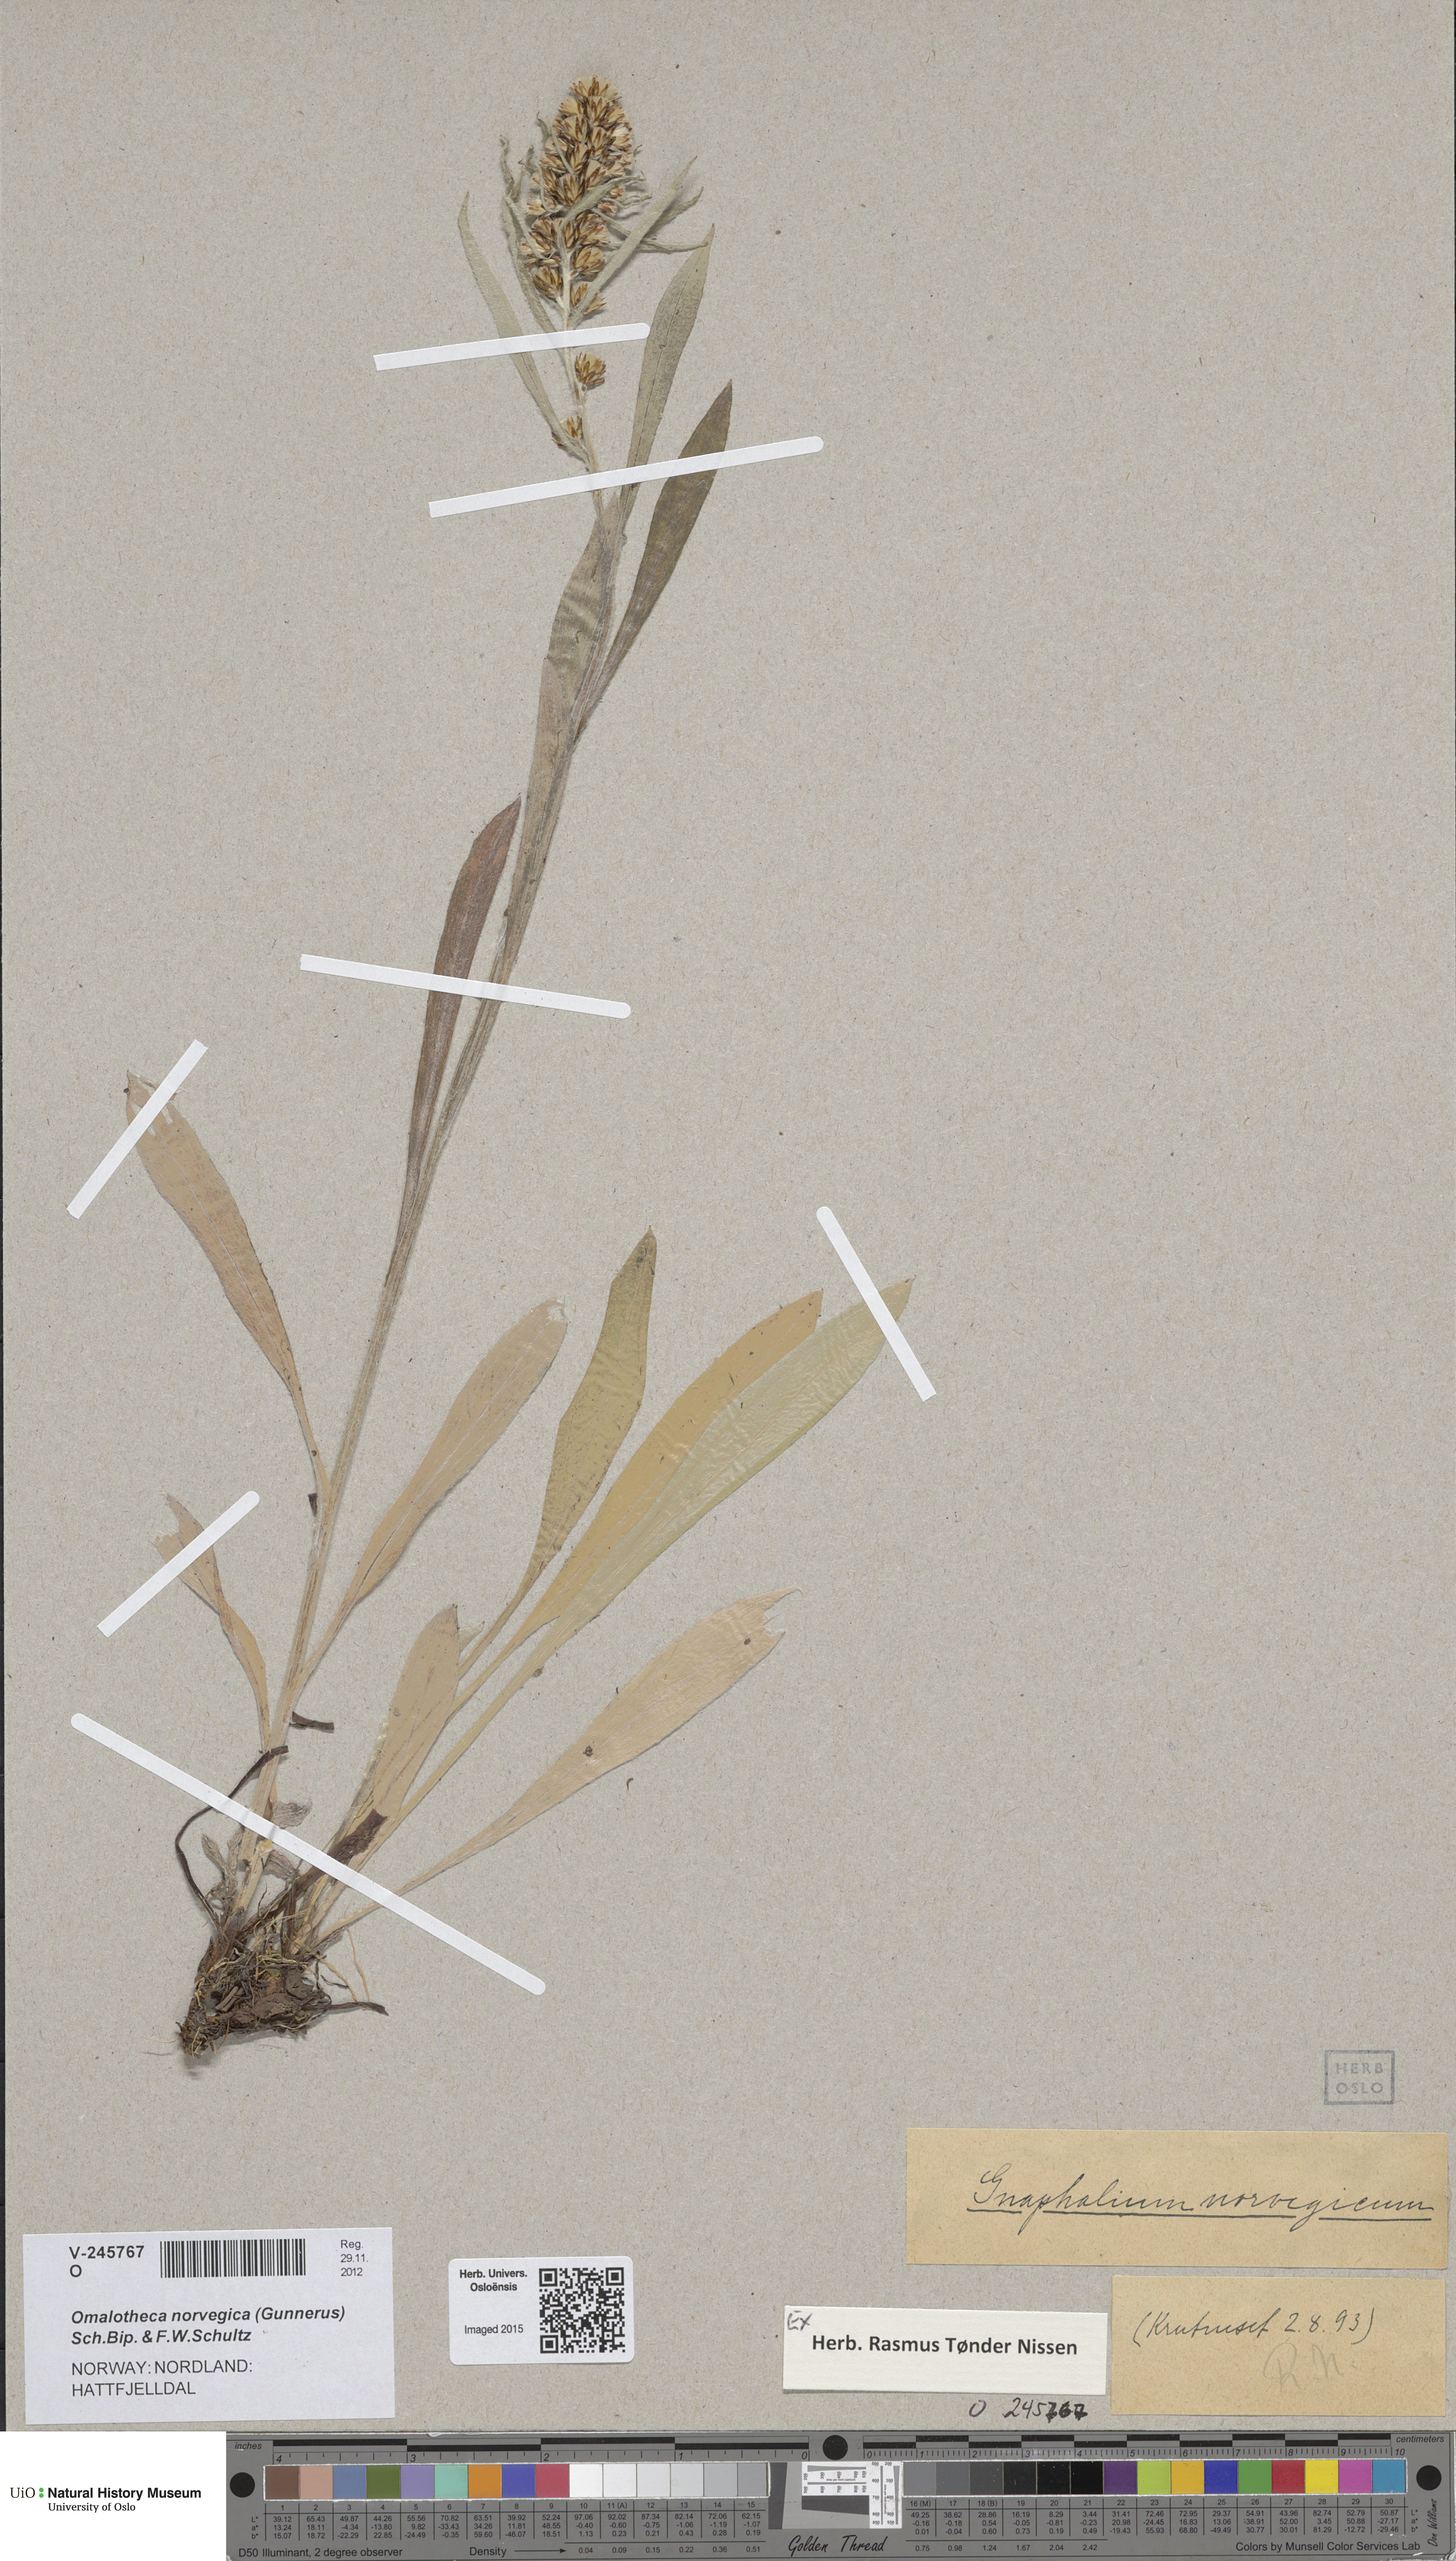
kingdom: Plantae
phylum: Tracheophyta
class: Magnoliopsida
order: Asterales
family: Asteraceae
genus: Omalotheca
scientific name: Omalotheca norvegica
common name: Norwegian arctic-cudweed
